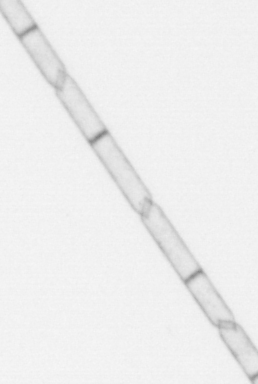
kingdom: Chromista
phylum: Ochrophyta
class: Bacillariophyceae
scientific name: Bacillariophyceae
